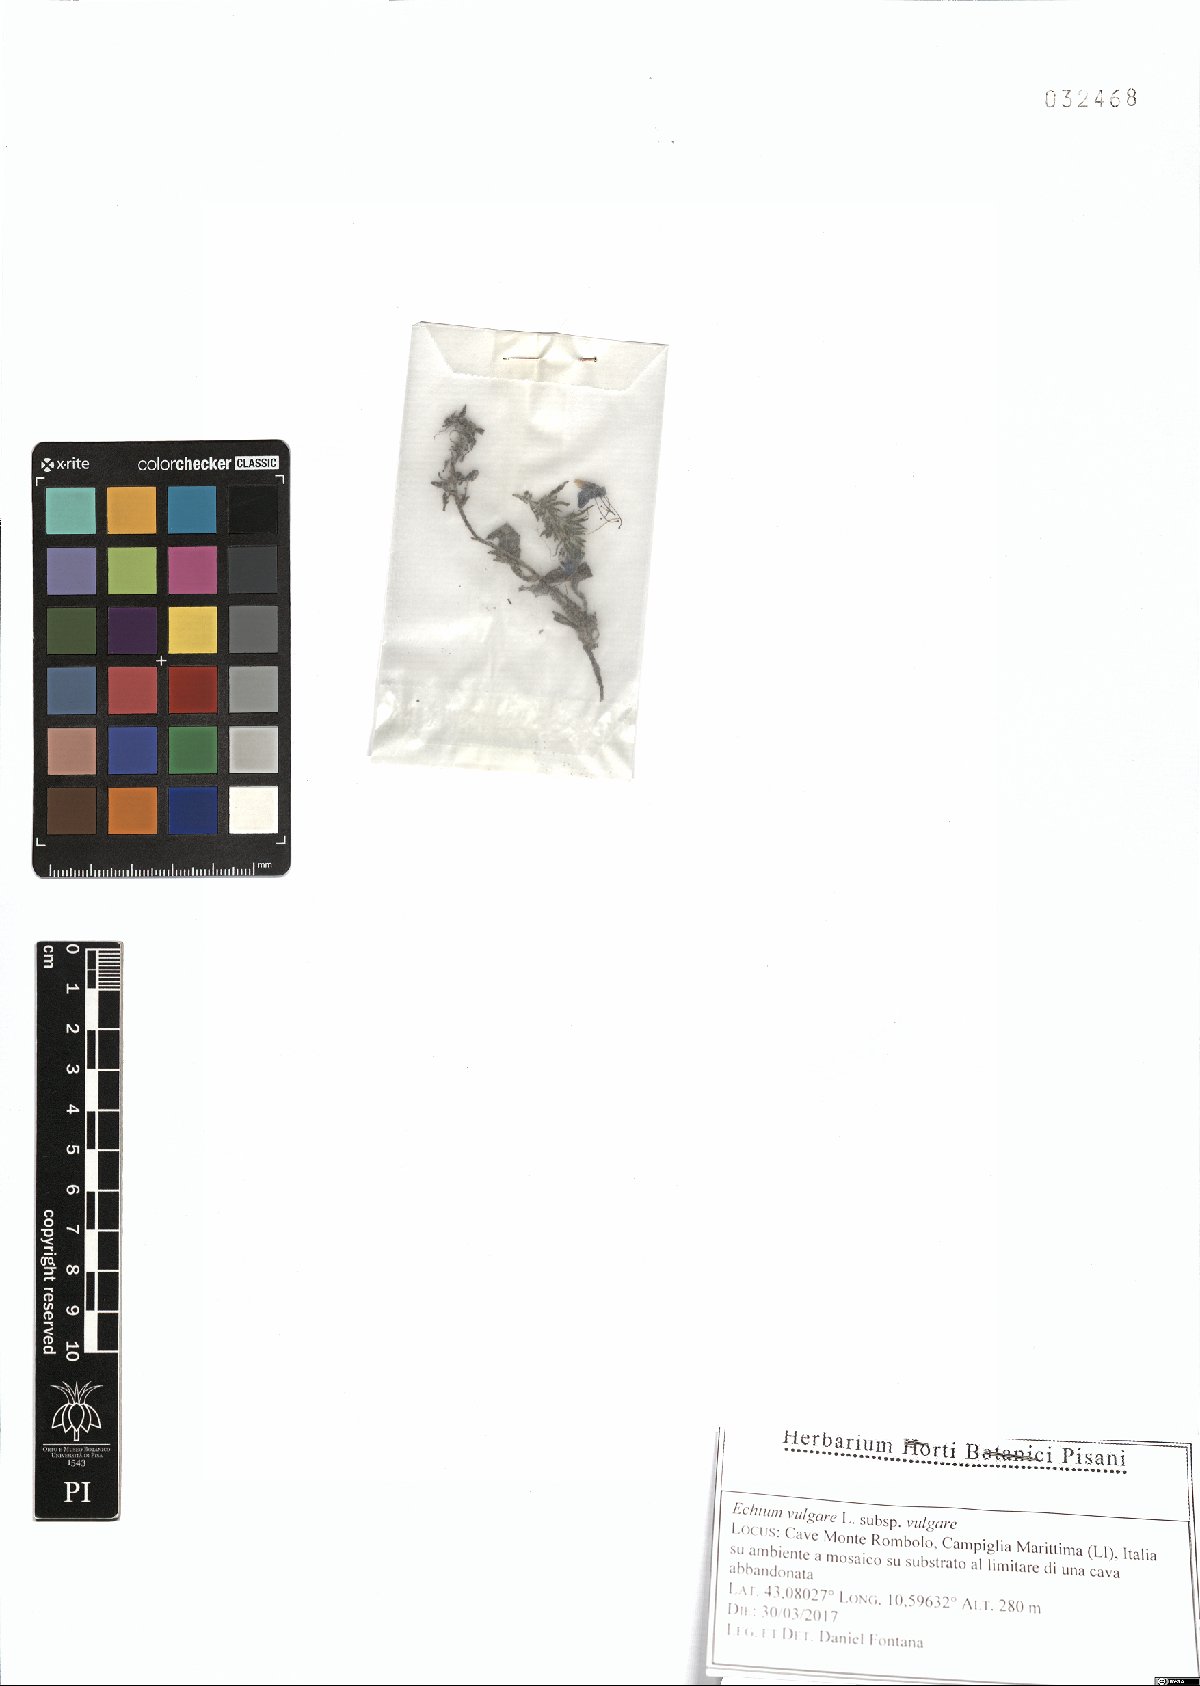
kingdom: Plantae
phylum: Tracheophyta
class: Magnoliopsida
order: Boraginales
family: Boraginaceae
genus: Echium
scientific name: Echium vulgare
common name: Common viper's bugloss
